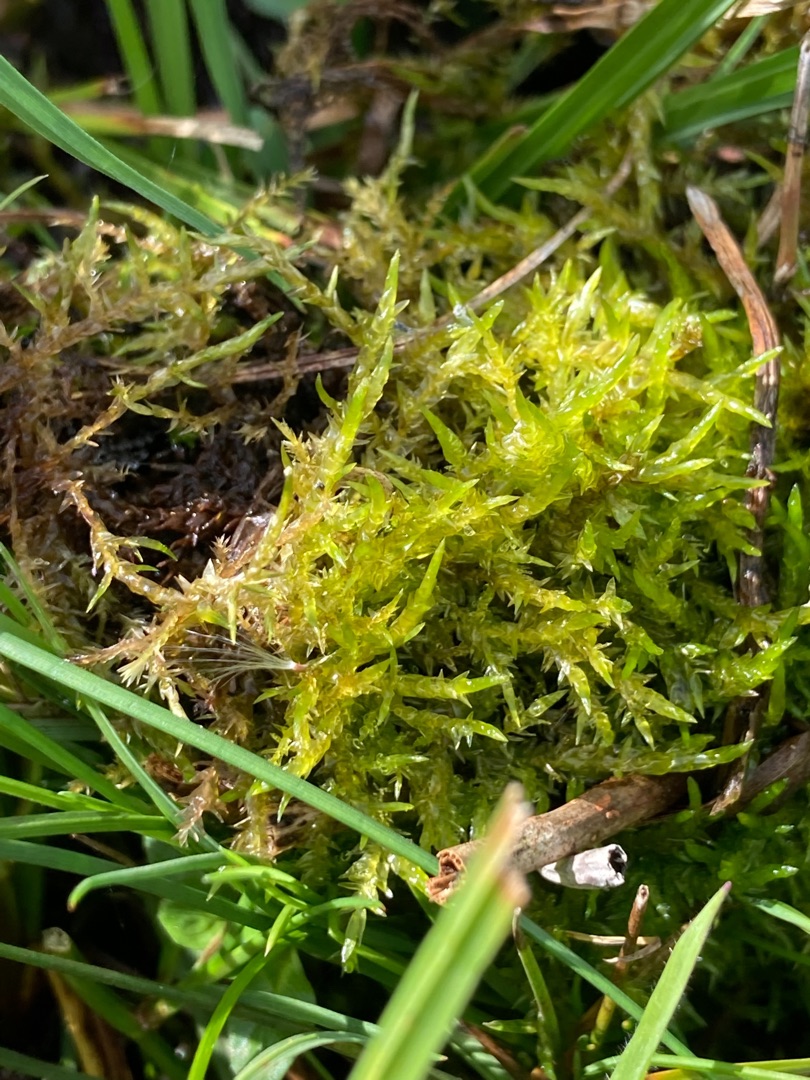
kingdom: Plantae
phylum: Bryophyta
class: Bryopsida
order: Hypnales
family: Pylaisiaceae
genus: Calliergonella
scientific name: Calliergonella cuspidata
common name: Spids spydmos
